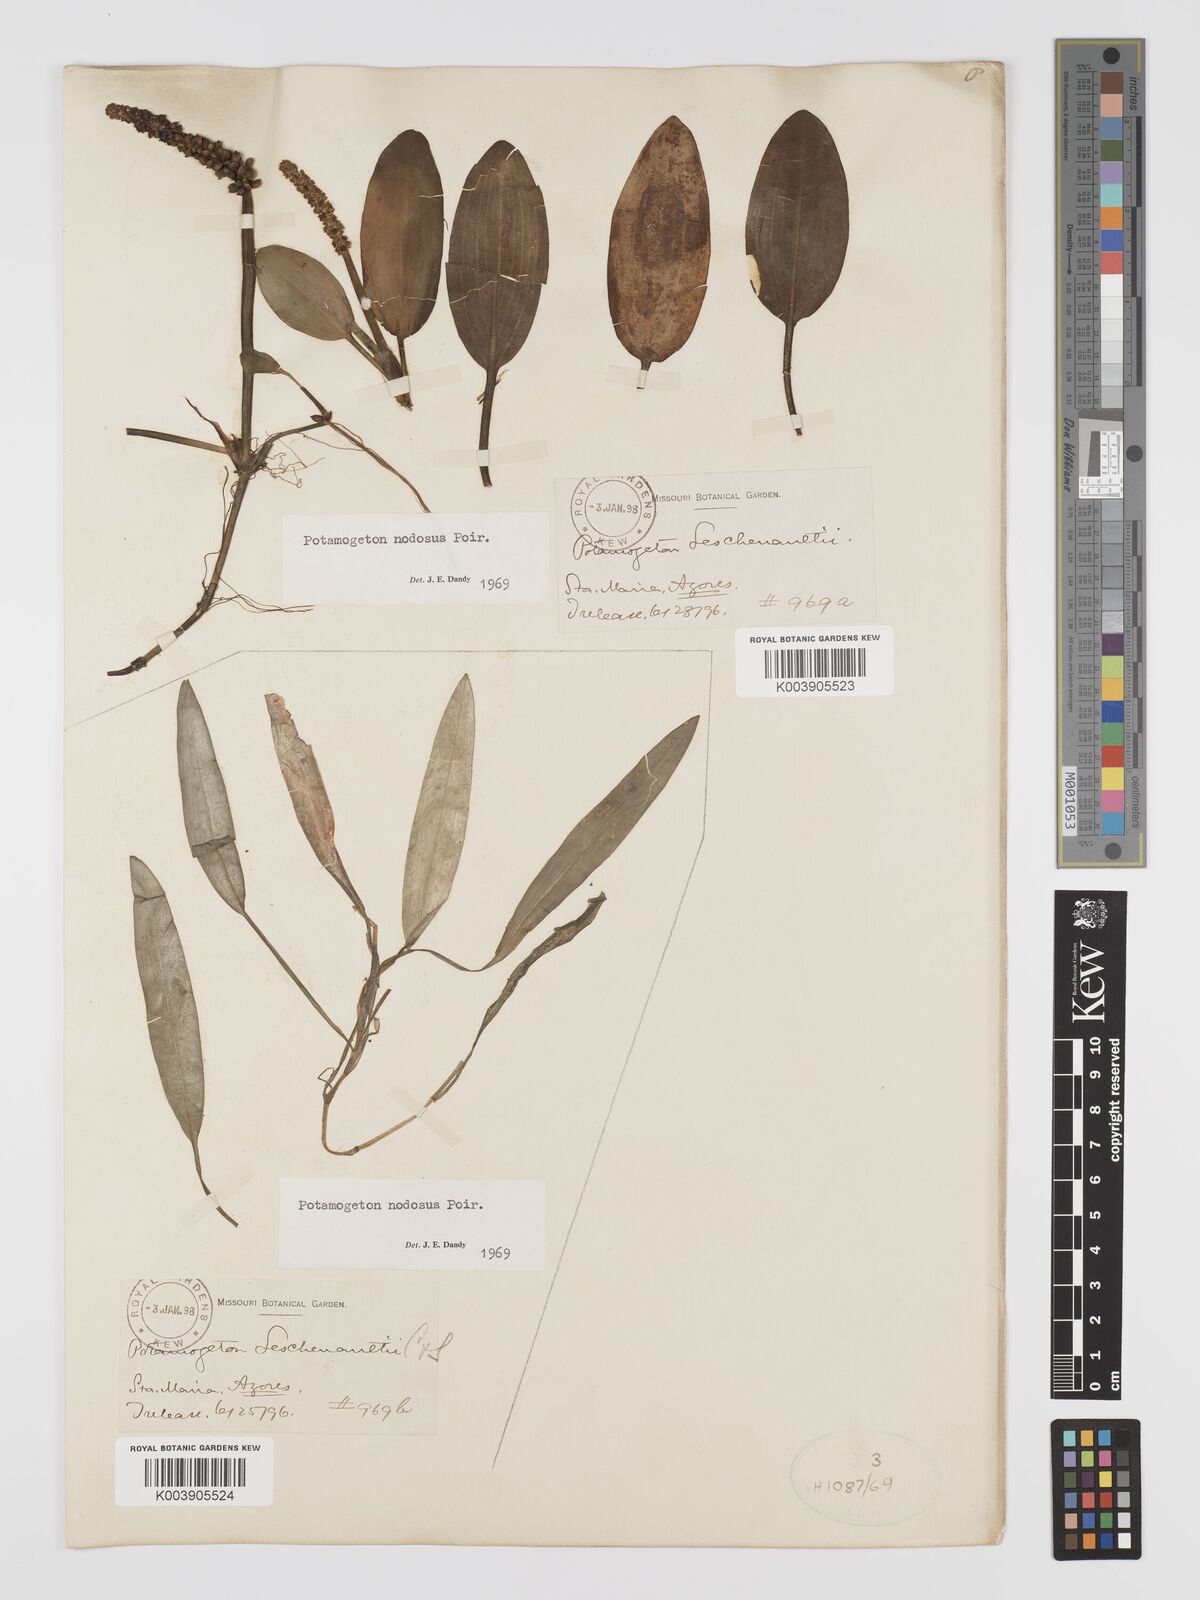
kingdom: Plantae
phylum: Tracheophyta
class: Liliopsida
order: Alismatales
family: Potamogetonaceae
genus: Potamogeton
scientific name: Potamogeton nodosus
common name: Loddon pondweed
